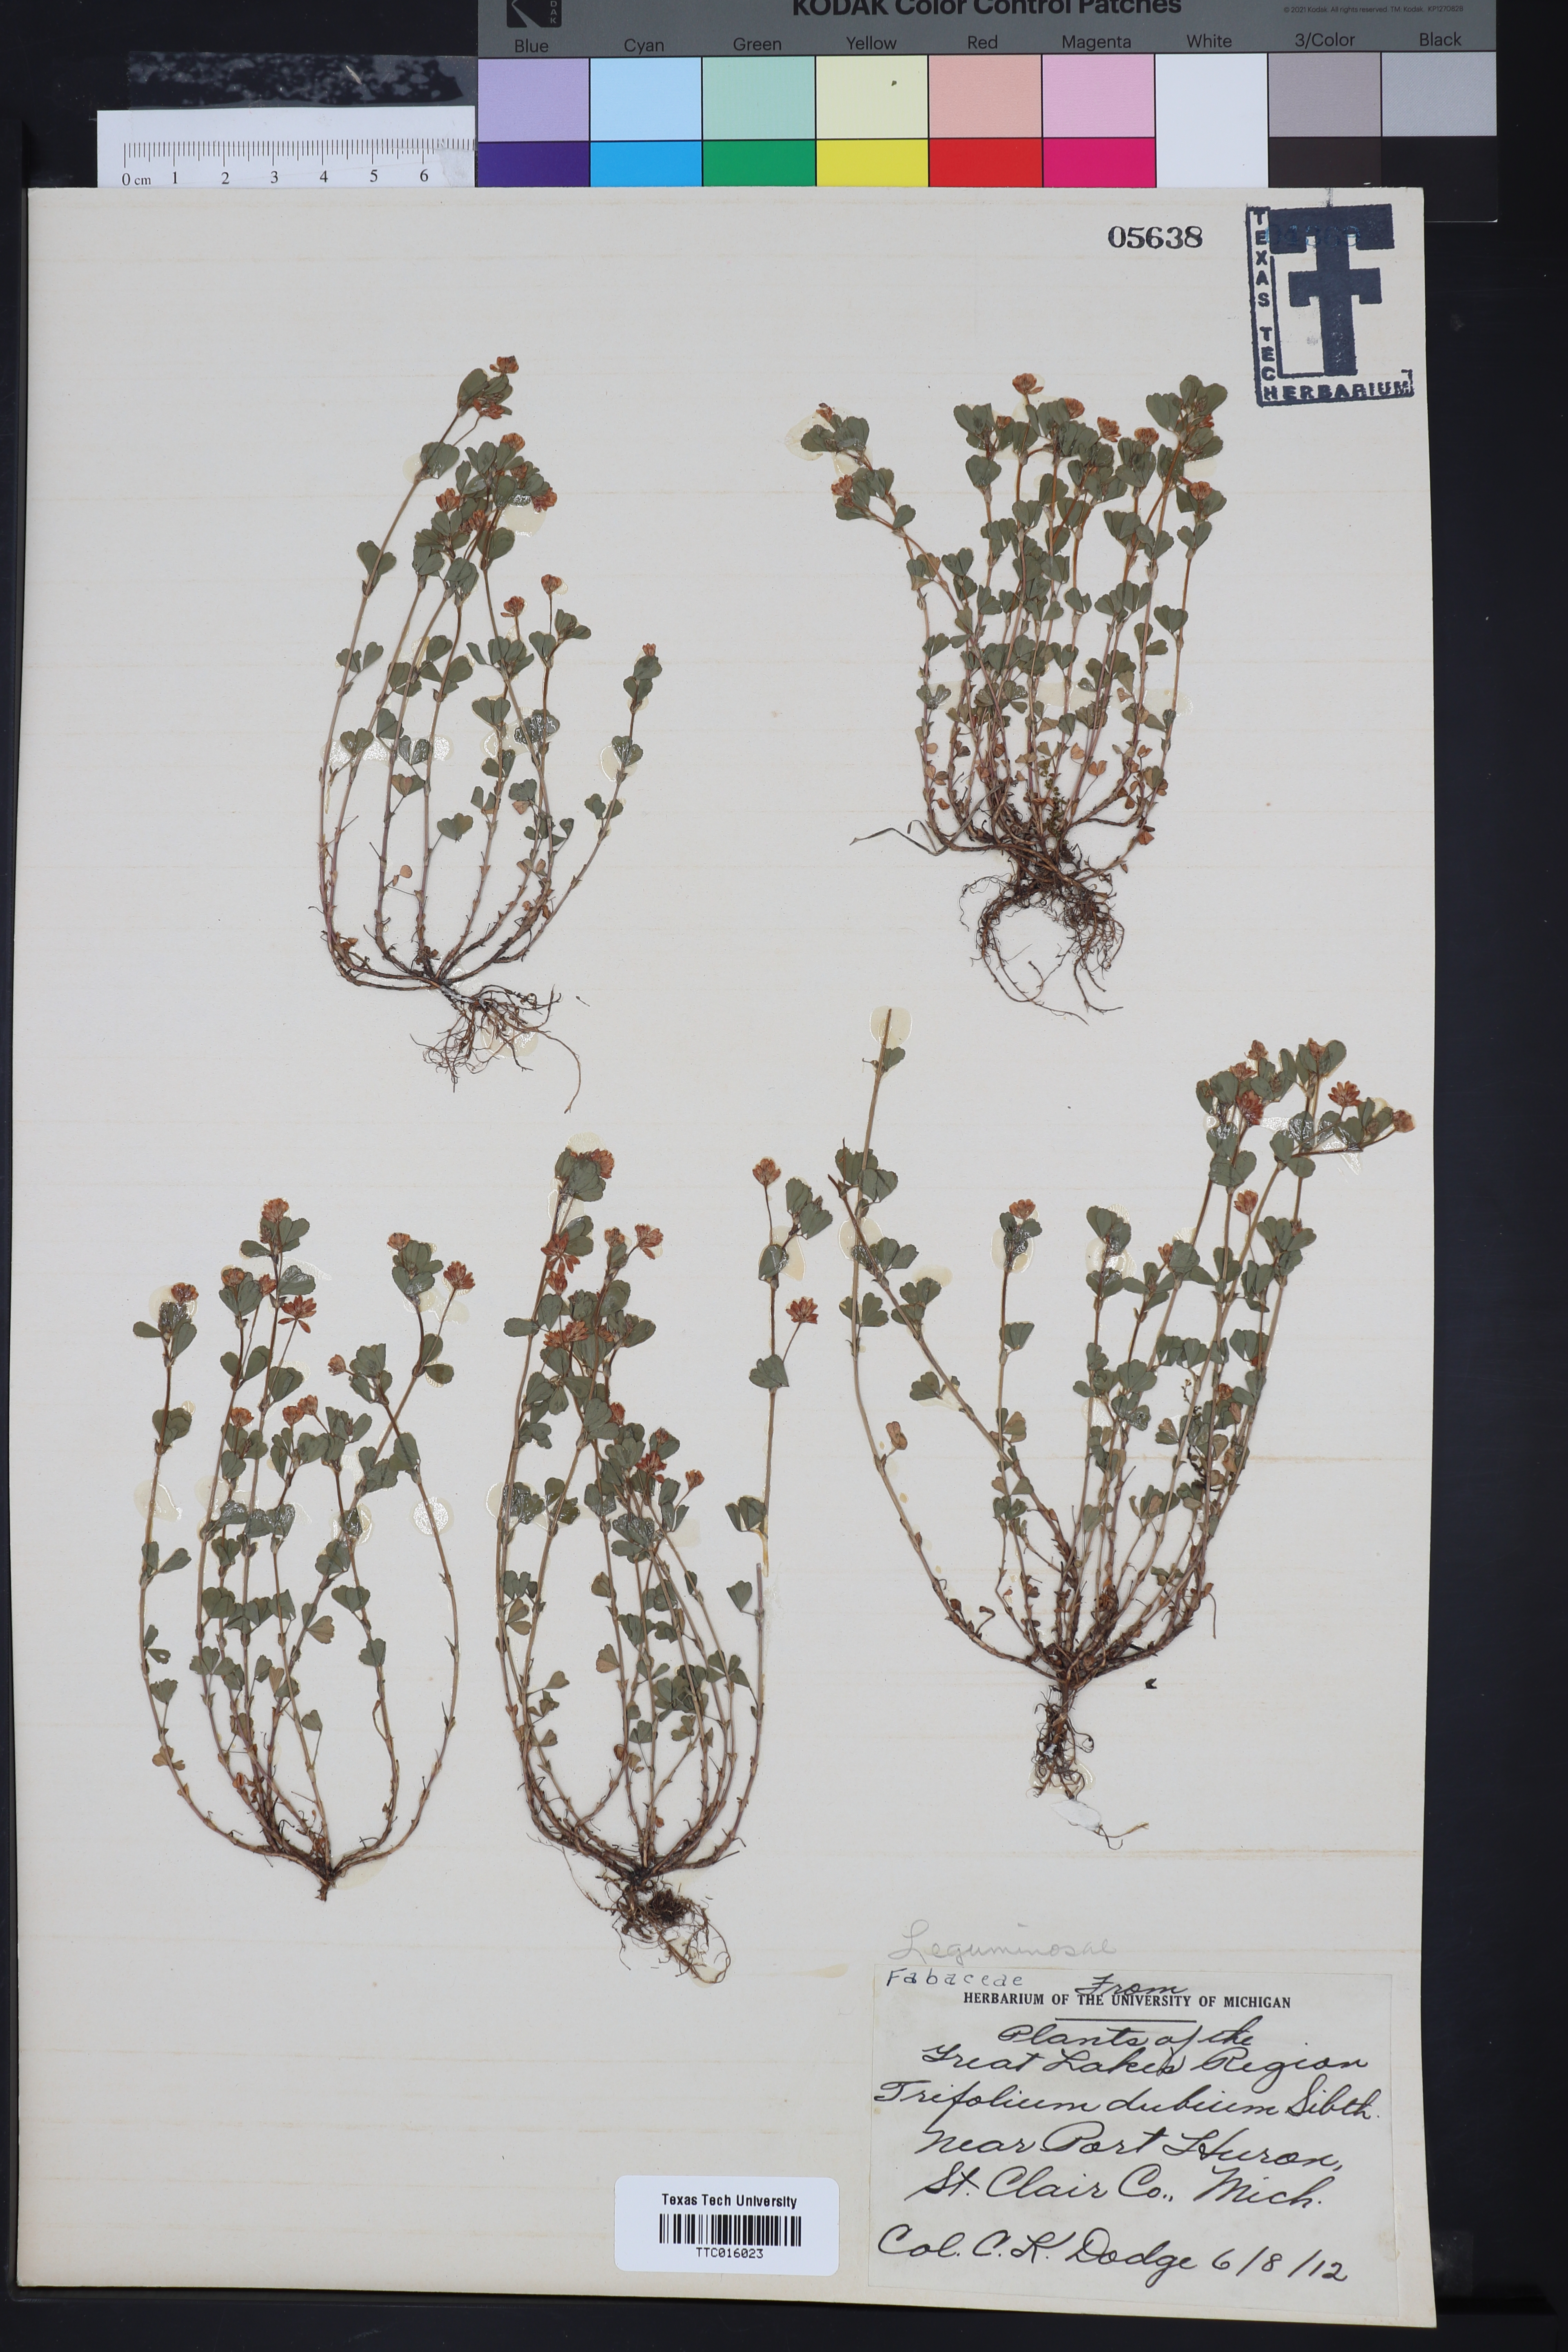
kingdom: Plantae
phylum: Tracheophyta
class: Magnoliopsida
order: Fabales
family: Fabaceae
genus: Trifolium
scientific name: Trifolium dubium
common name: Suckling clover
